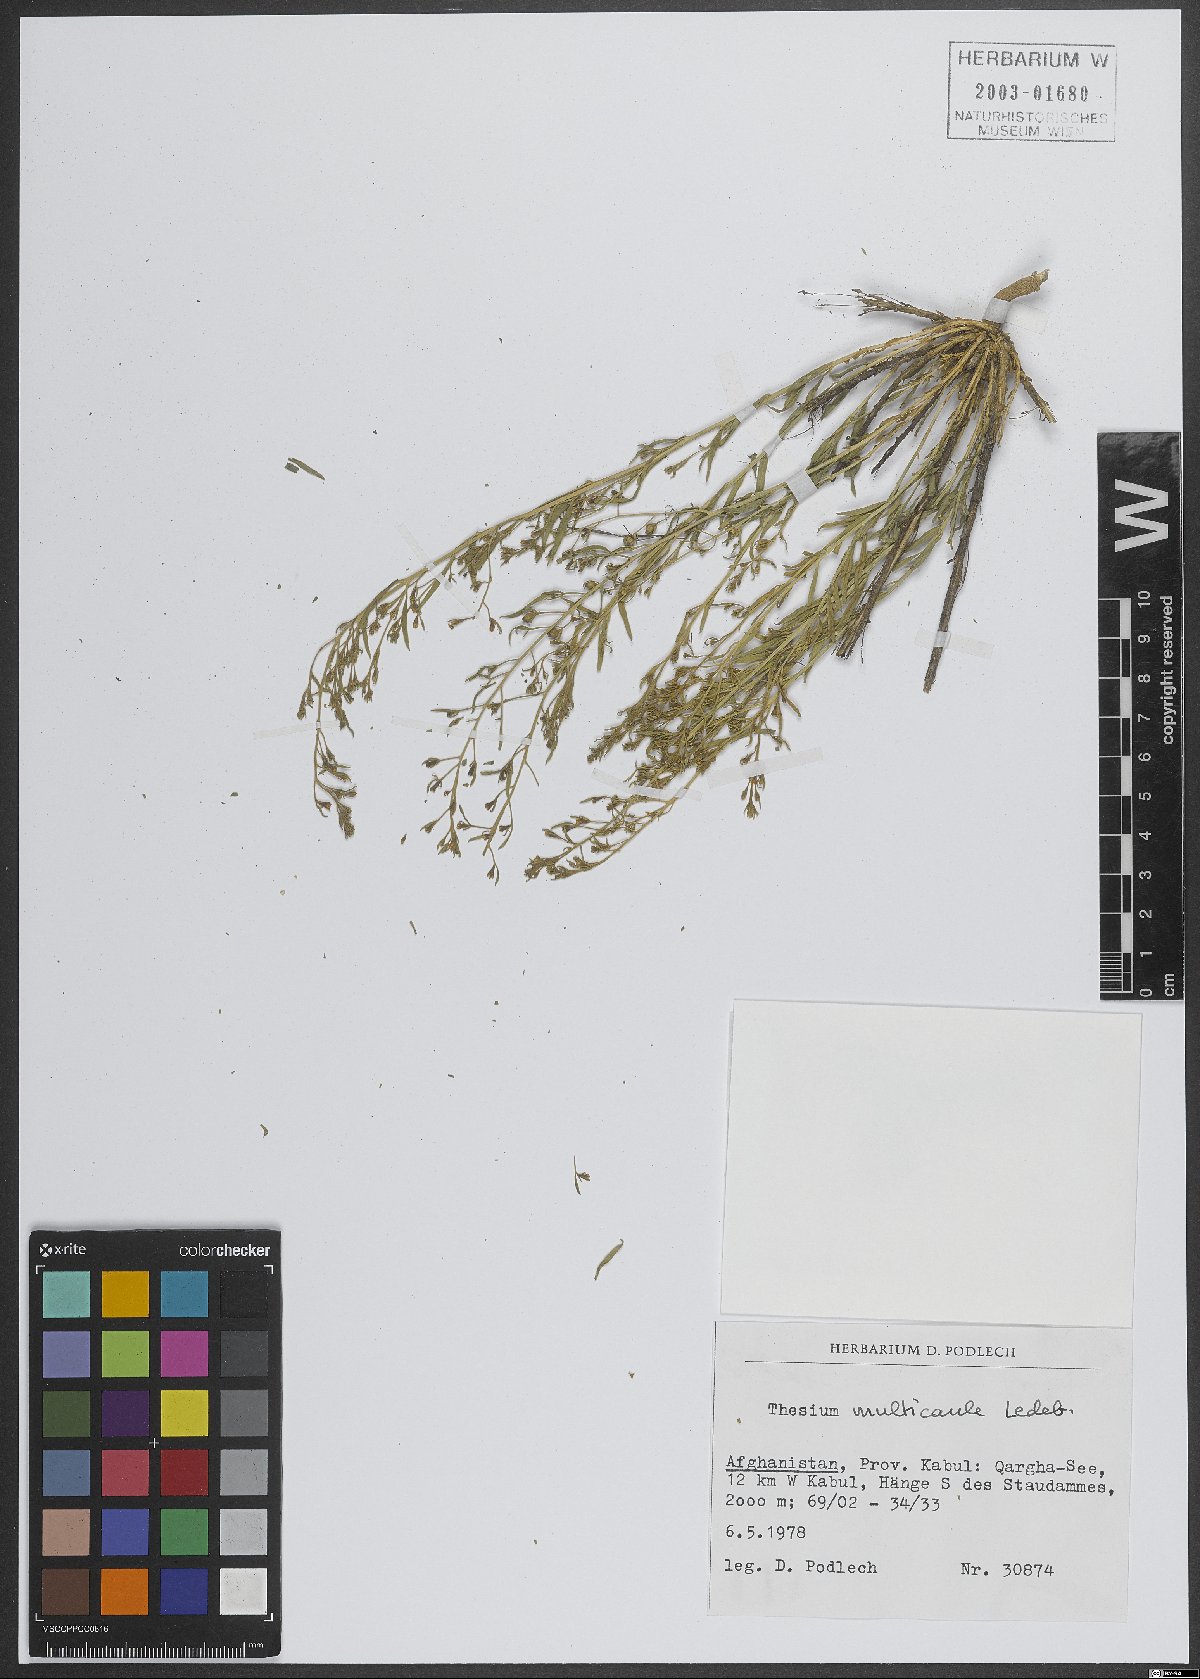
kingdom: Plantae
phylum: Tracheophyta
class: Magnoliopsida
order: Santalales
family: Thesiaceae
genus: Thesium
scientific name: Thesium multicaule
